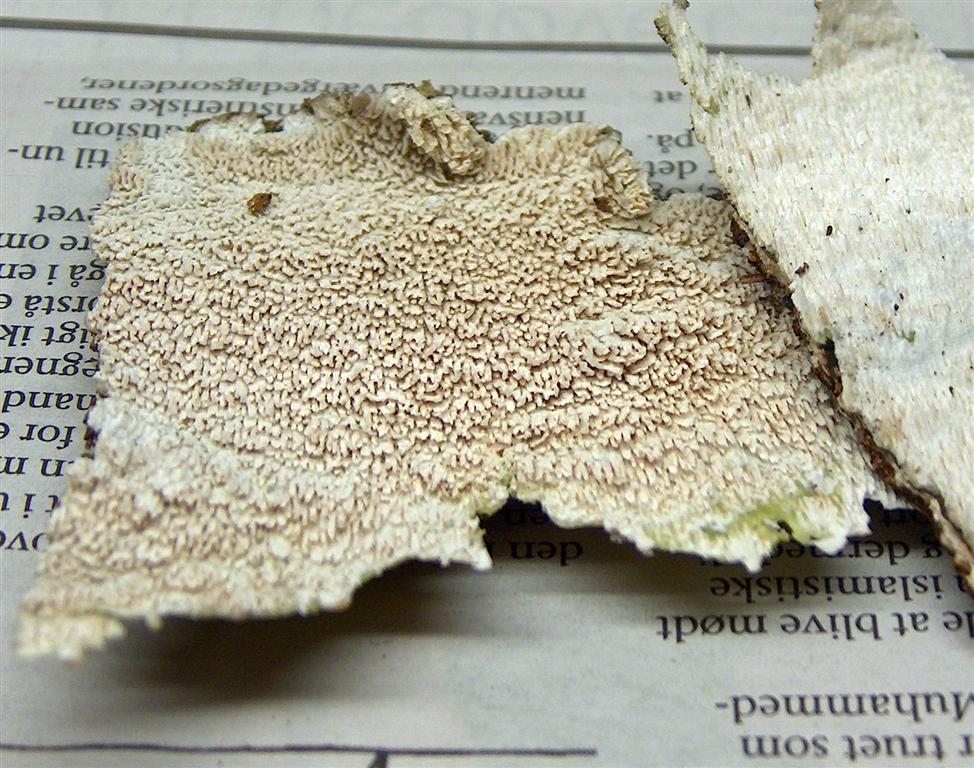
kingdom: Fungi
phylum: Basidiomycota
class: Agaricomycetes
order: Hymenochaetales
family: Schizoporaceae
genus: Schizopora
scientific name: Schizopora paradoxa
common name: hvid tandsvamp
